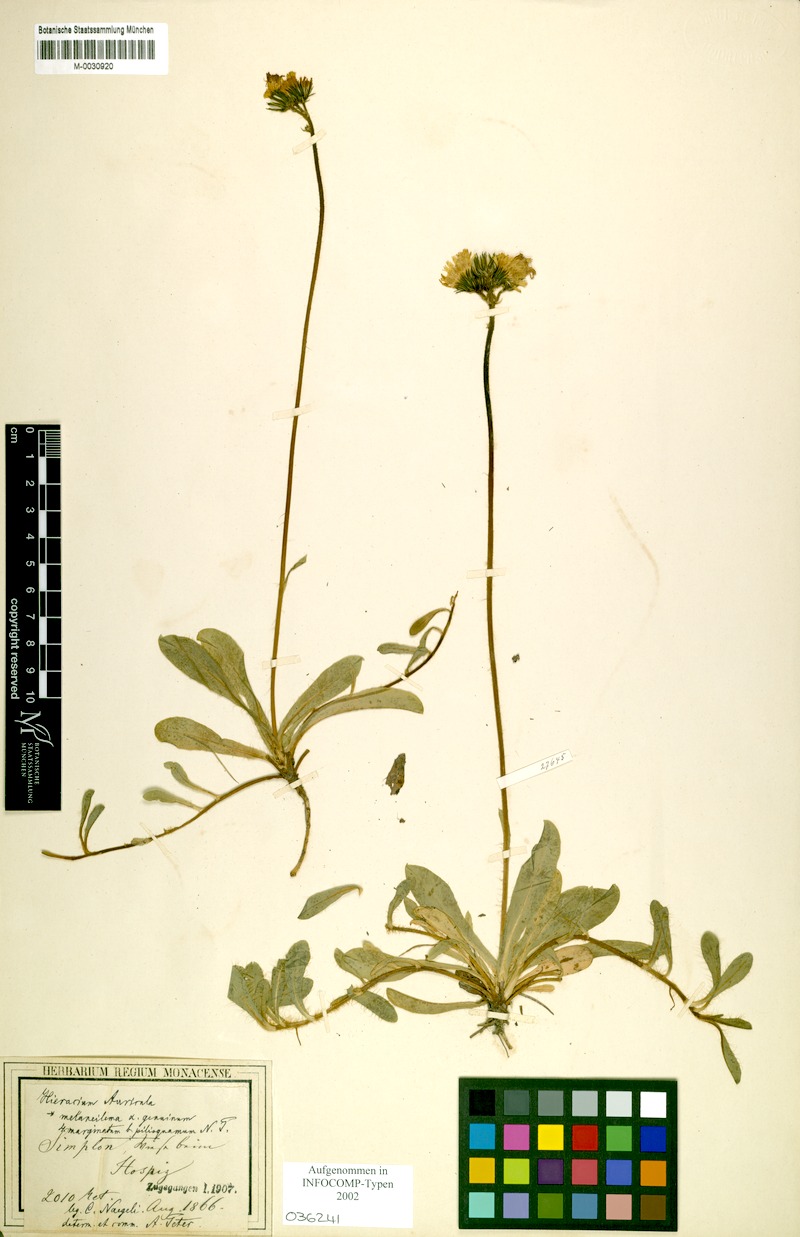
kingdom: Plantae
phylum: Tracheophyta
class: Magnoliopsida
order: Asterales
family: Asteraceae
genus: Pilosella
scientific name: Pilosella lactucella
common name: Glaucous fox-and-cubs
